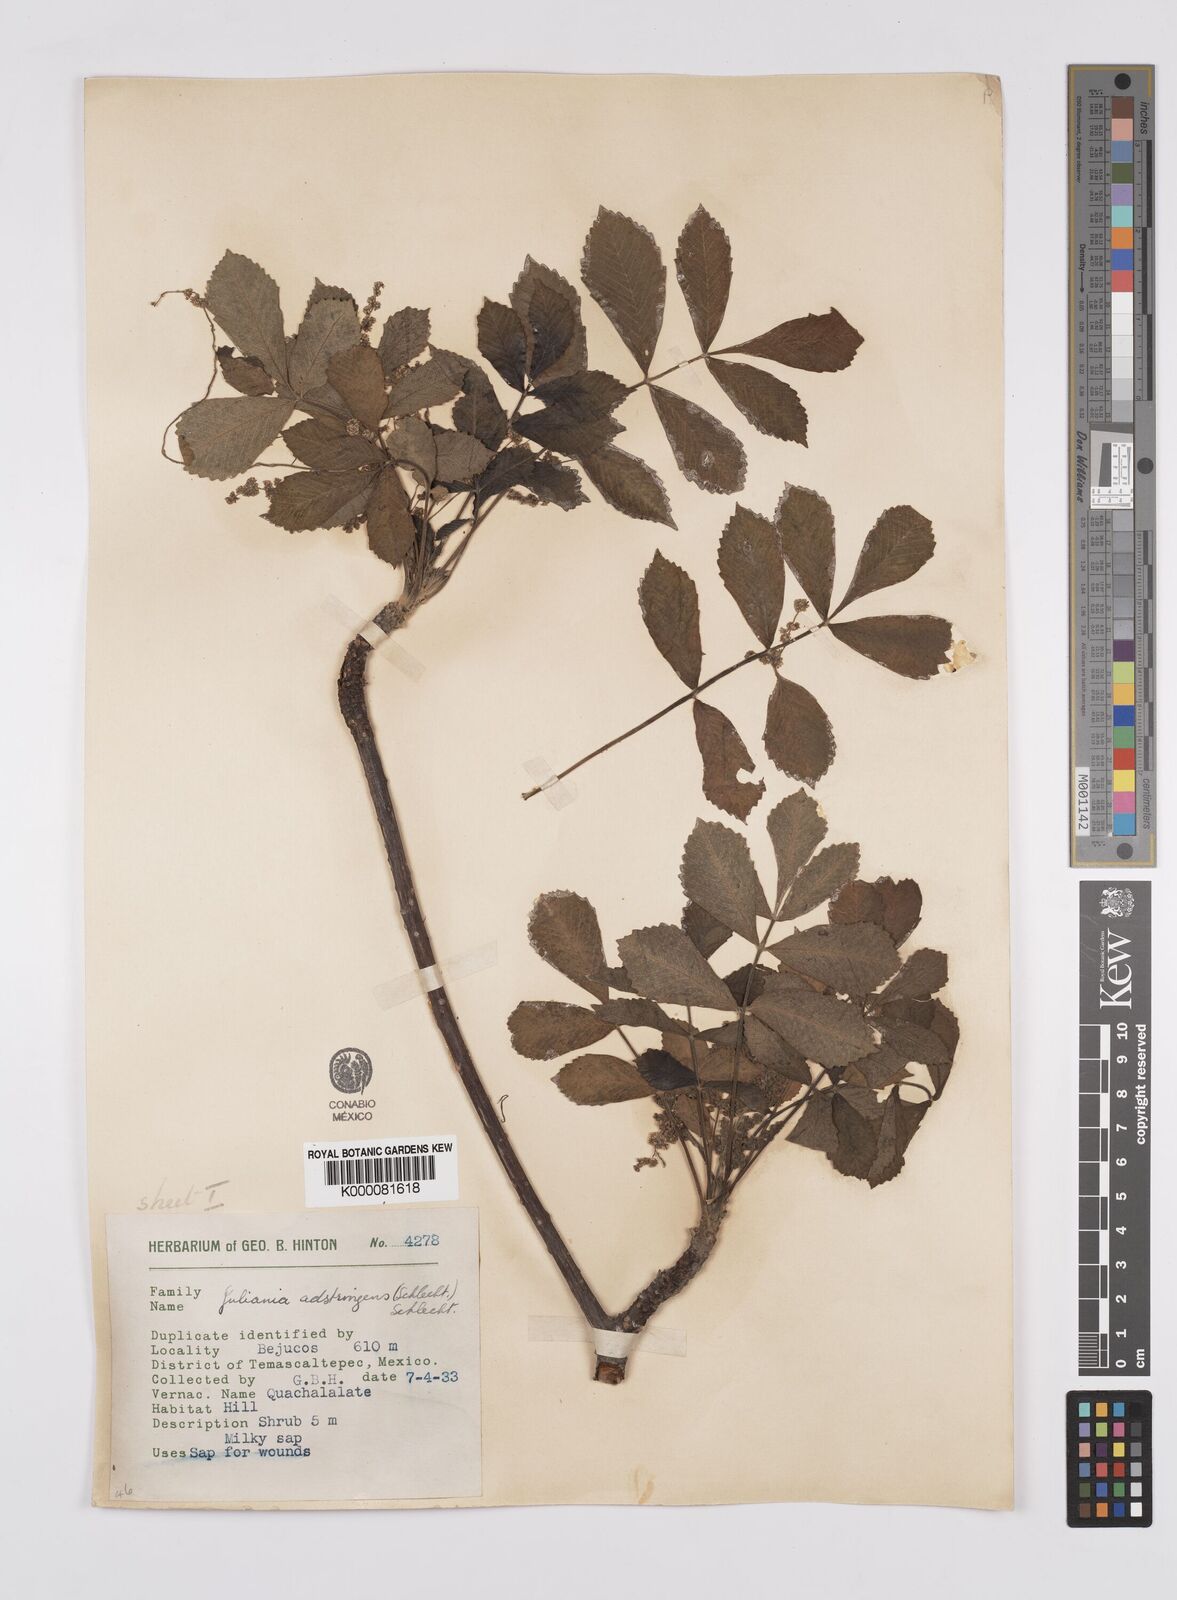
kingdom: Plantae
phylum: Tracheophyta
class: Magnoliopsida
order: Sapindales
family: Anacardiaceae
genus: Amphipterygium
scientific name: Amphipterygium adstringens
